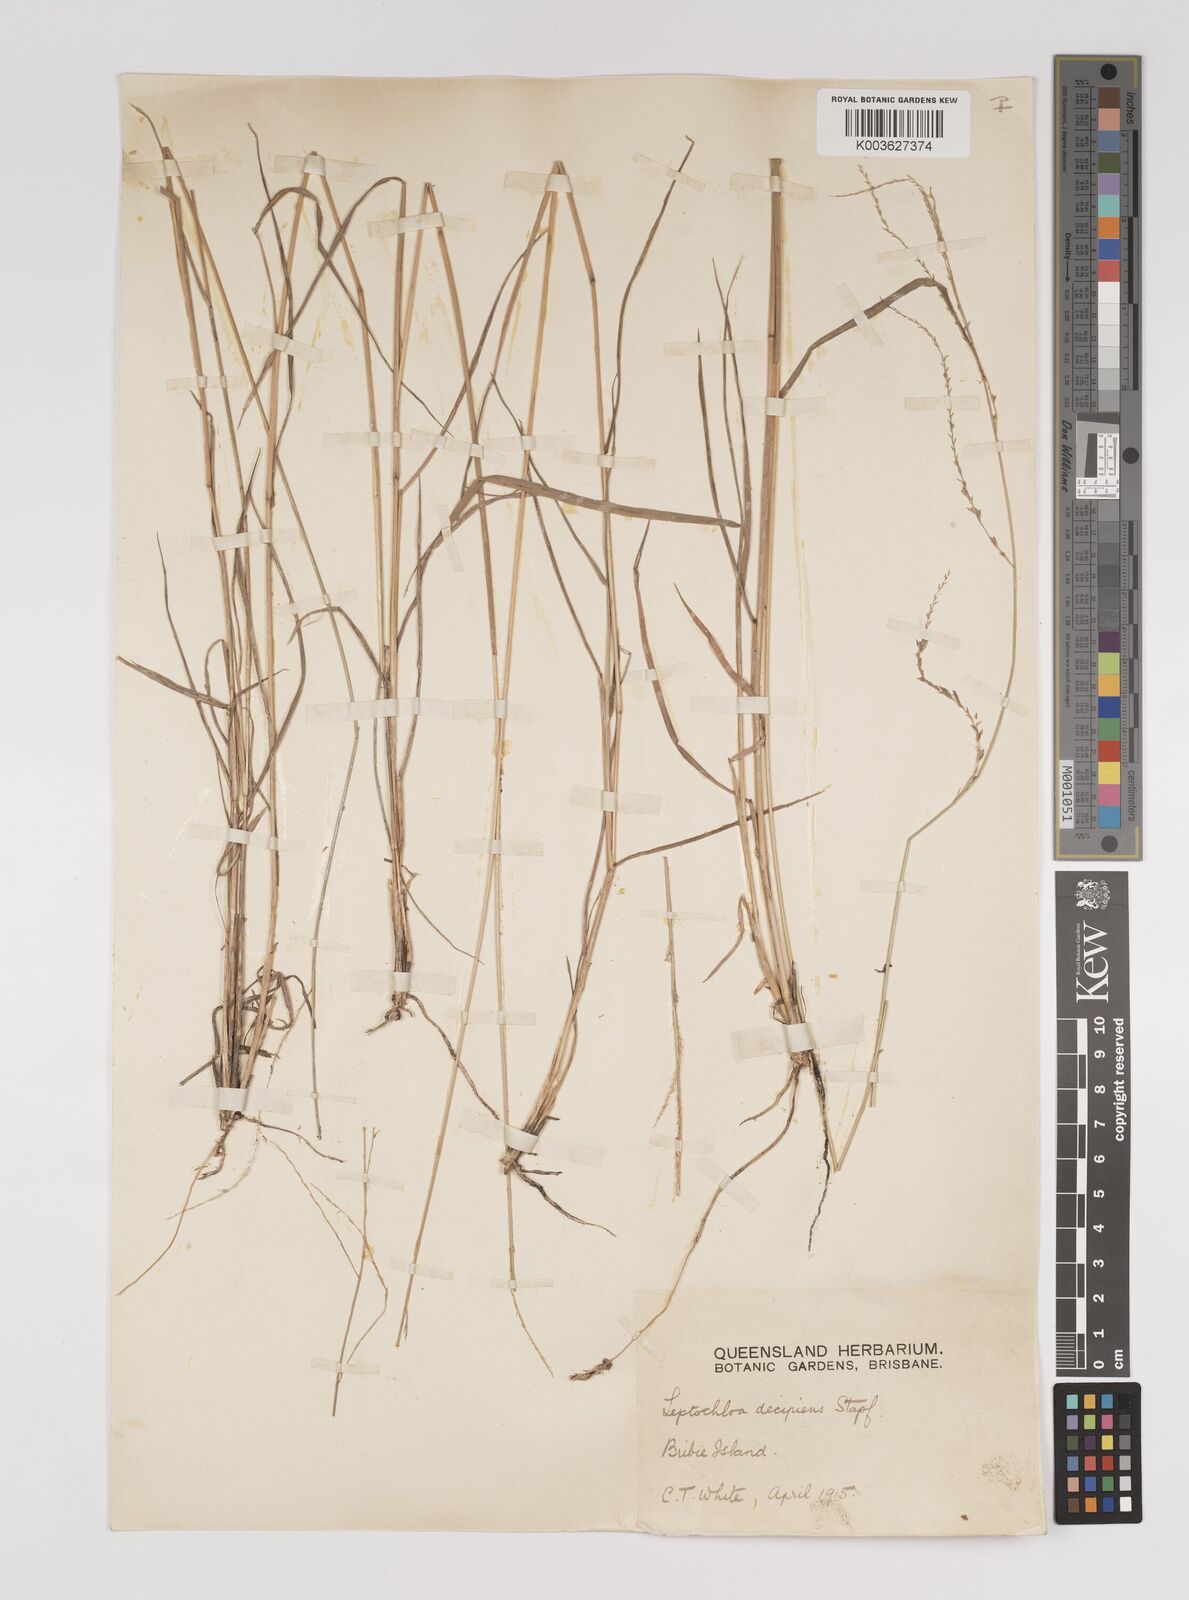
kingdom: Plantae
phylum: Tracheophyta
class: Liliopsida
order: Poales
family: Poaceae
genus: Leptochloa
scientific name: Leptochloa decipiens
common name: Australian sprangletop
